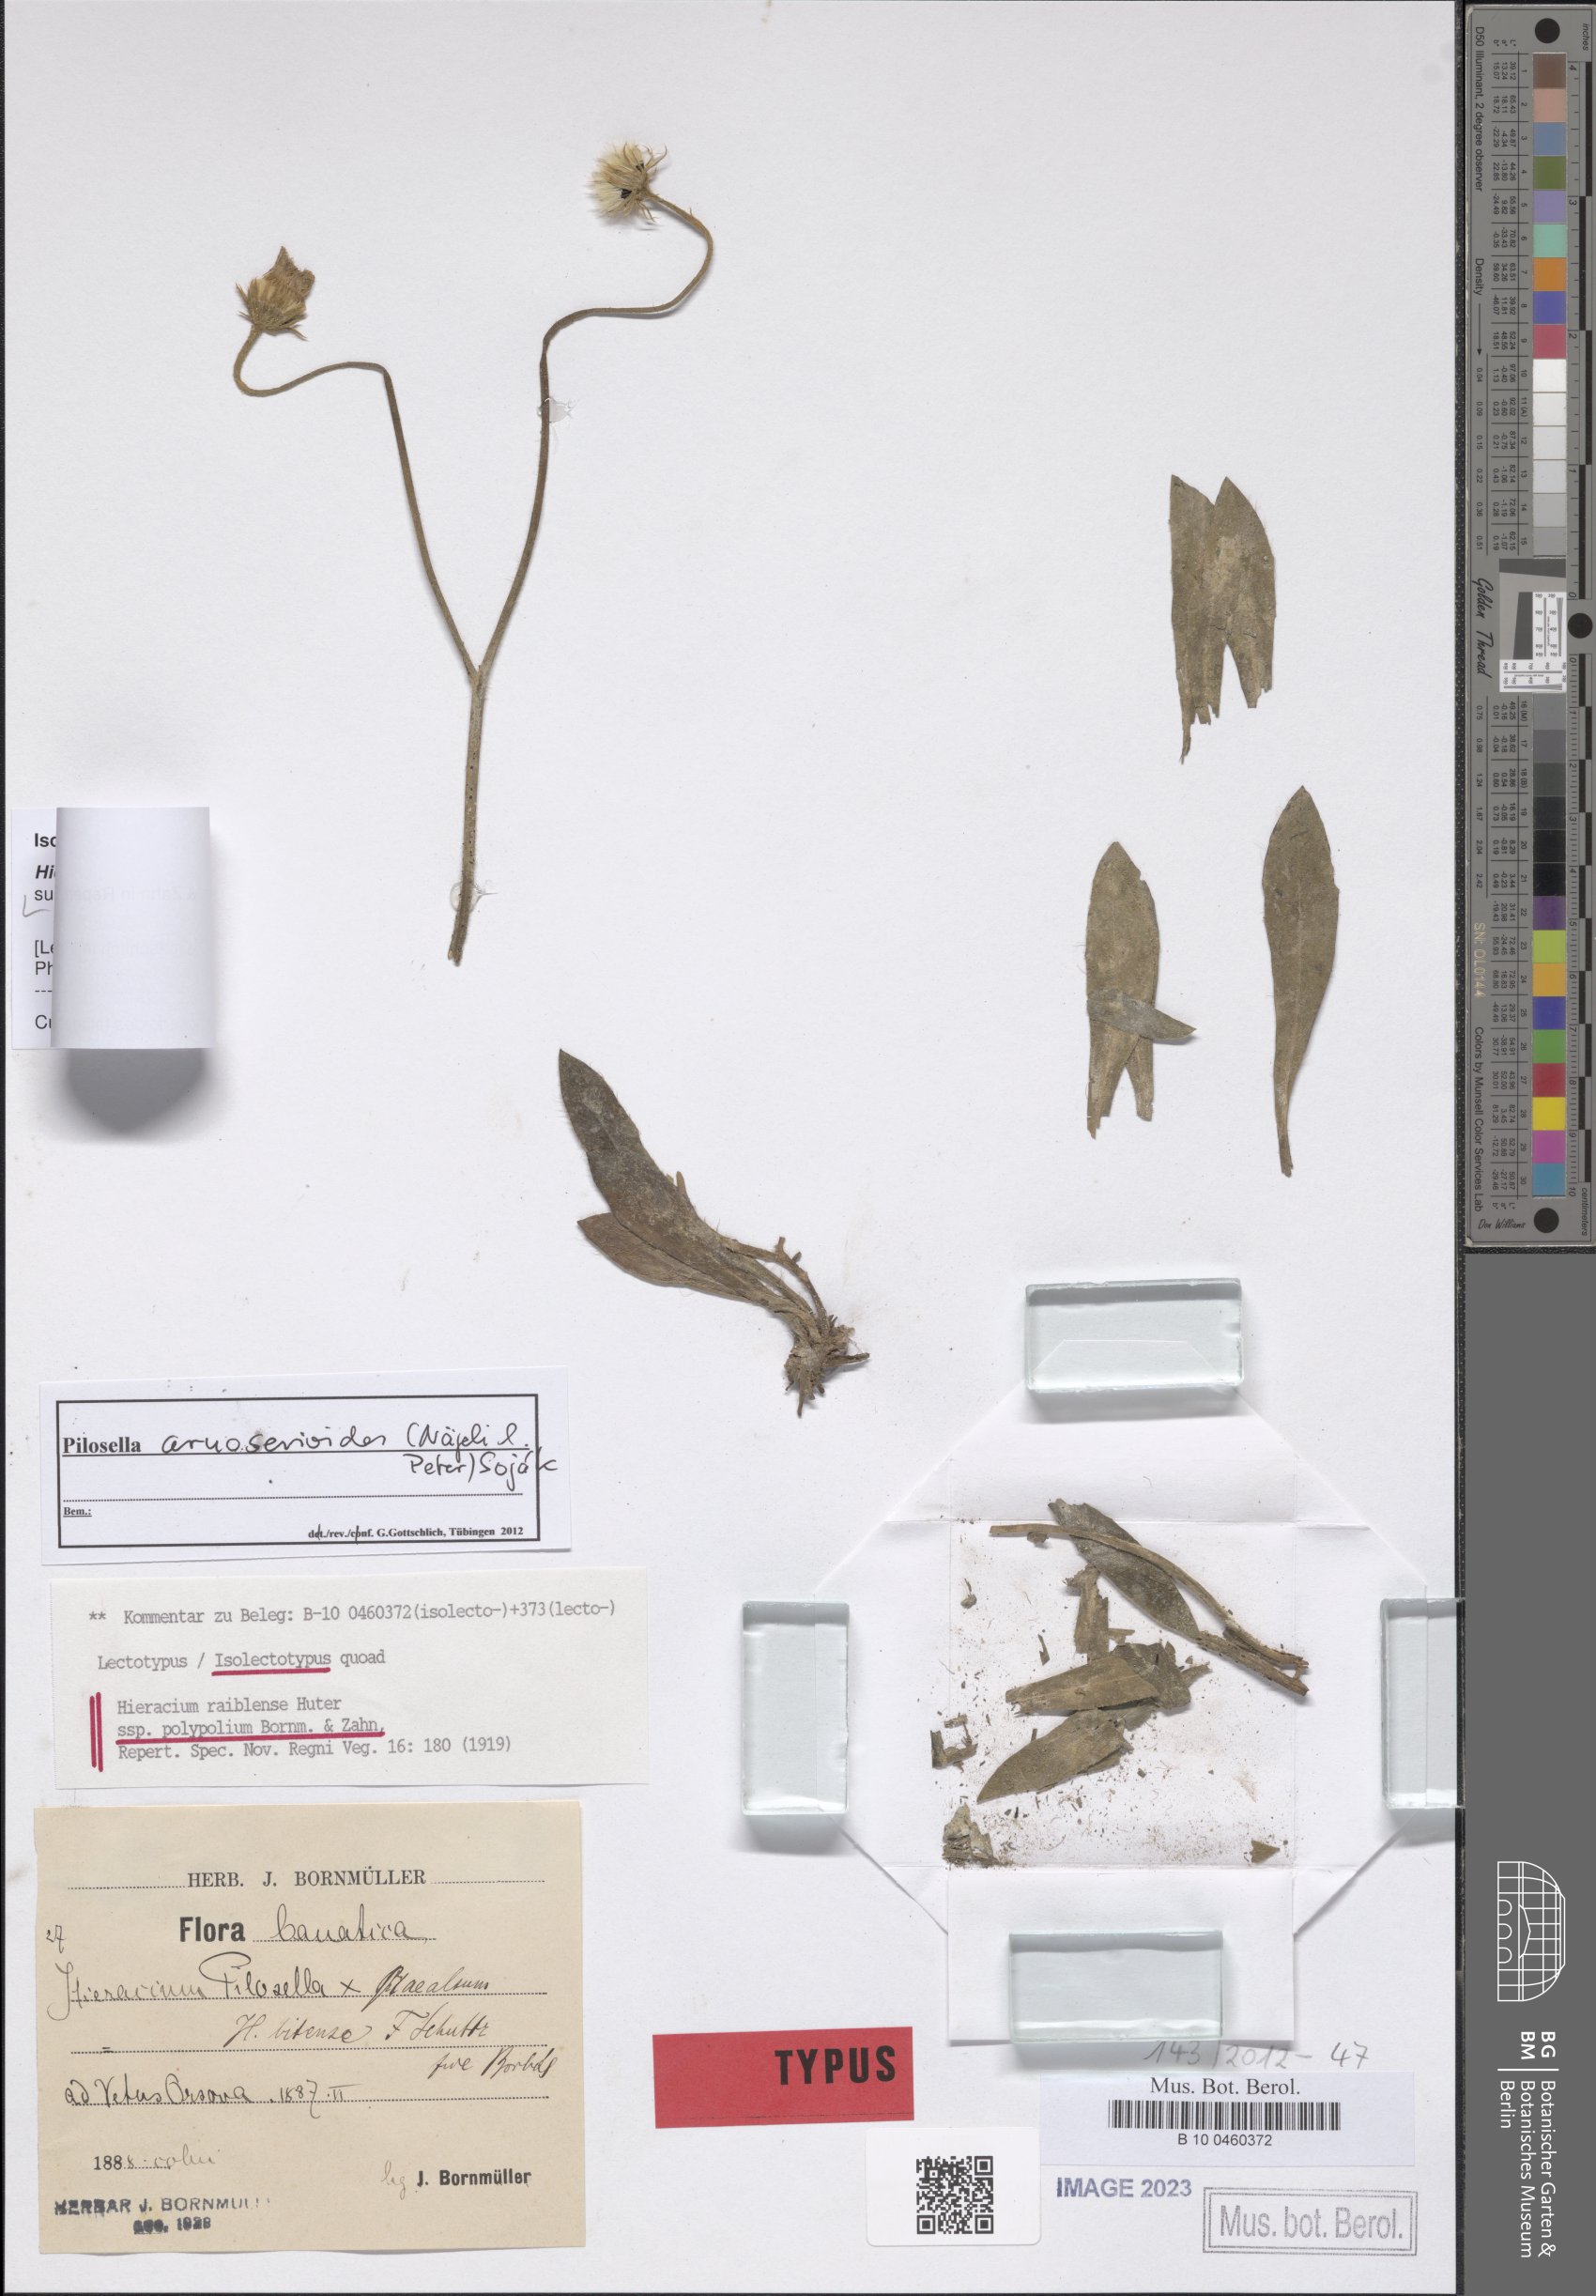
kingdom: Plantae
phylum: Tracheophyta
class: Magnoliopsida
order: Asterales
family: Asteraceae
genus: Pilosella
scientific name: Pilosella
